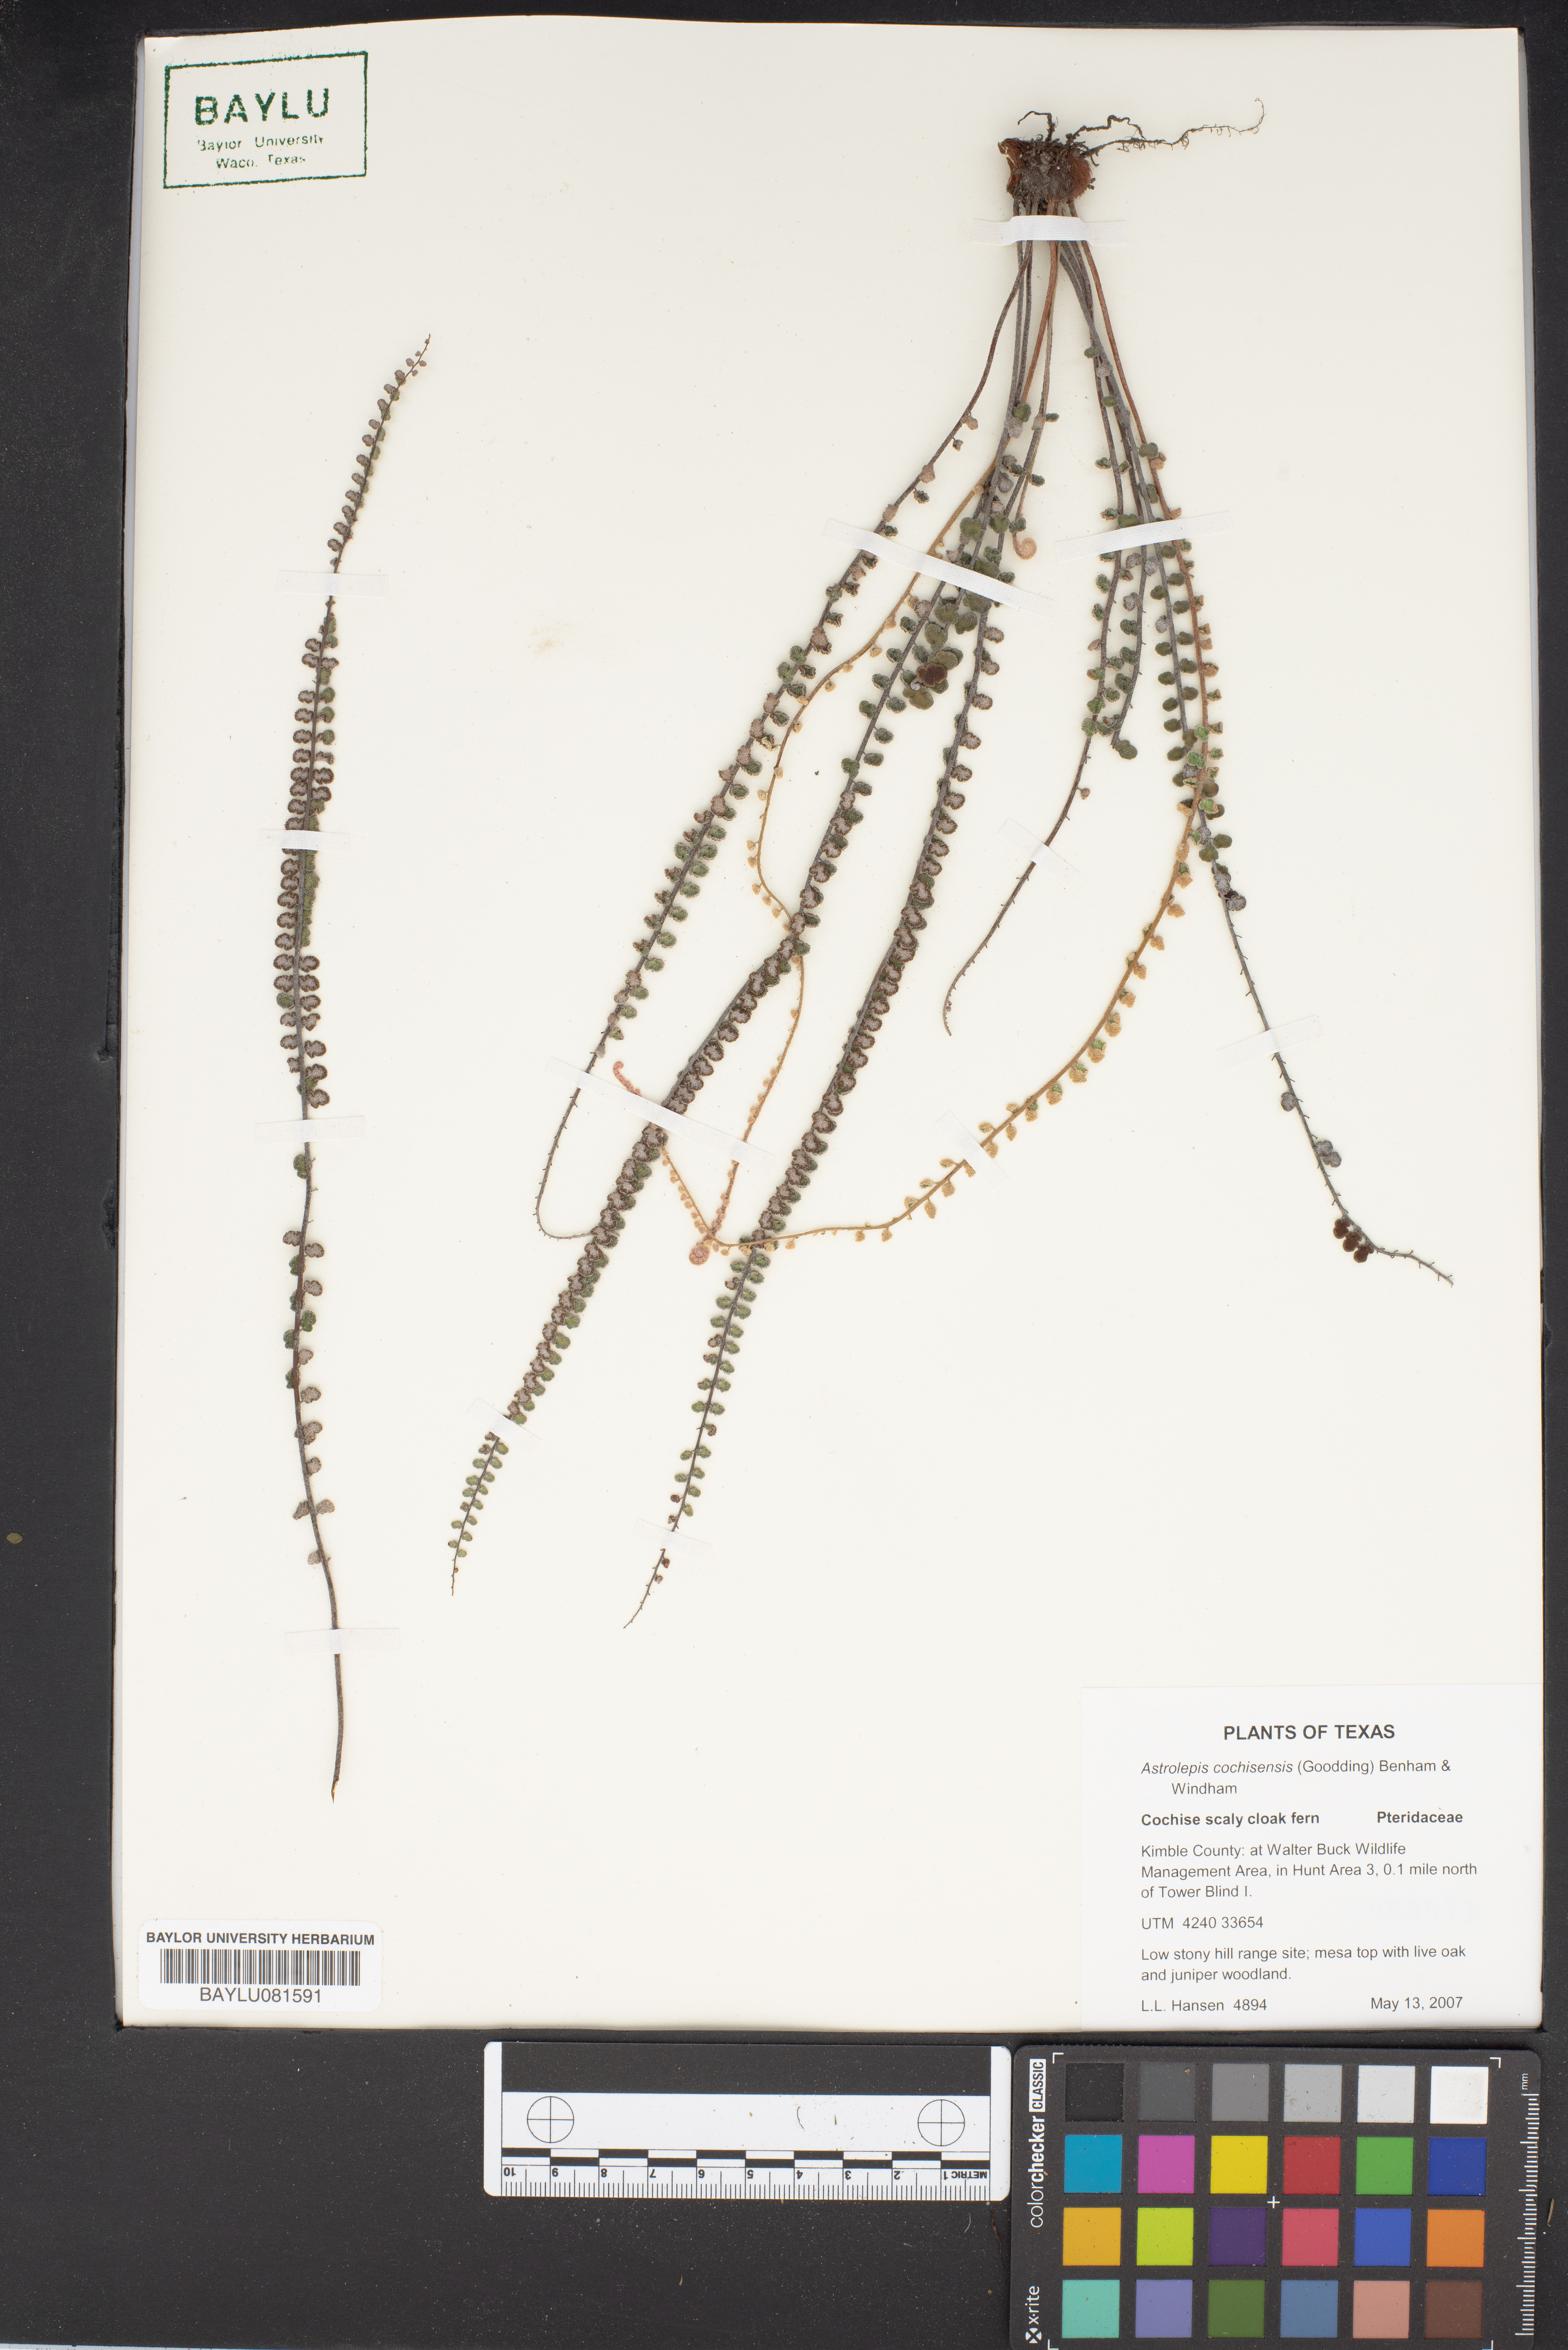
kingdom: Plantae
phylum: Tracheophyta
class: Polypodiopsida
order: Polypodiales
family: Pteridaceae
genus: Astrolepis
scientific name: Astrolepis cochisensis
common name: Scaly cloak fern
